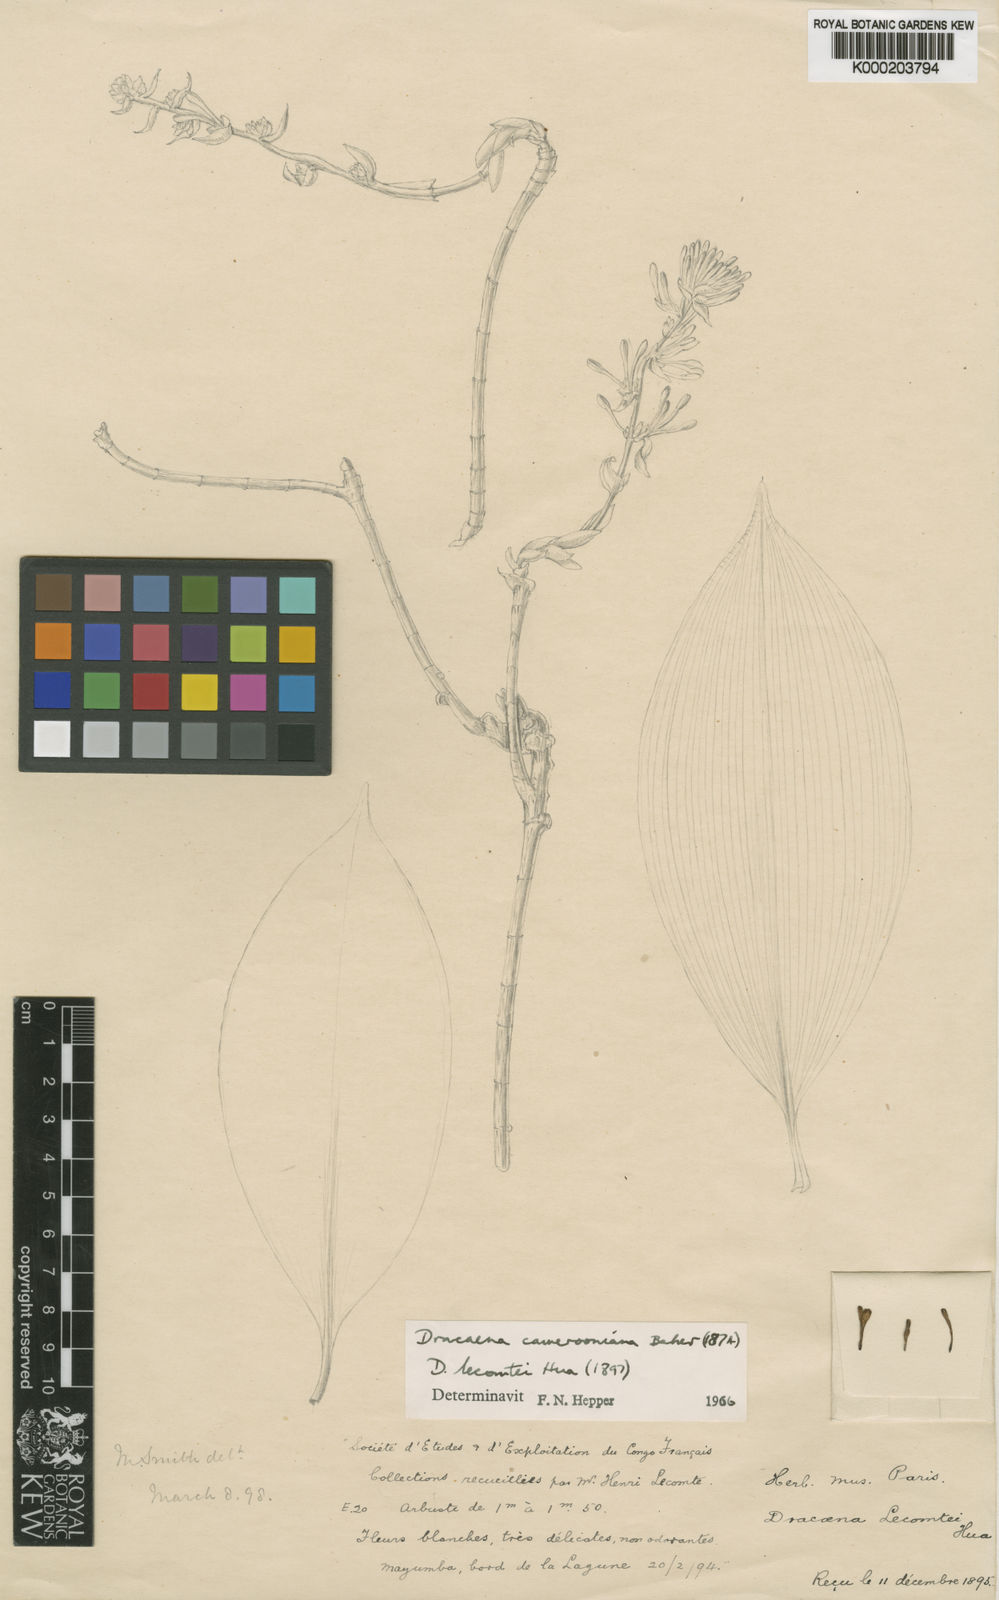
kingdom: Plantae
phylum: Tracheophyta
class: Liliopsida
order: Asparagales
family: Asparagaceae
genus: Dracaena
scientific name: Dracaena camerooniana
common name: Dragon tree
